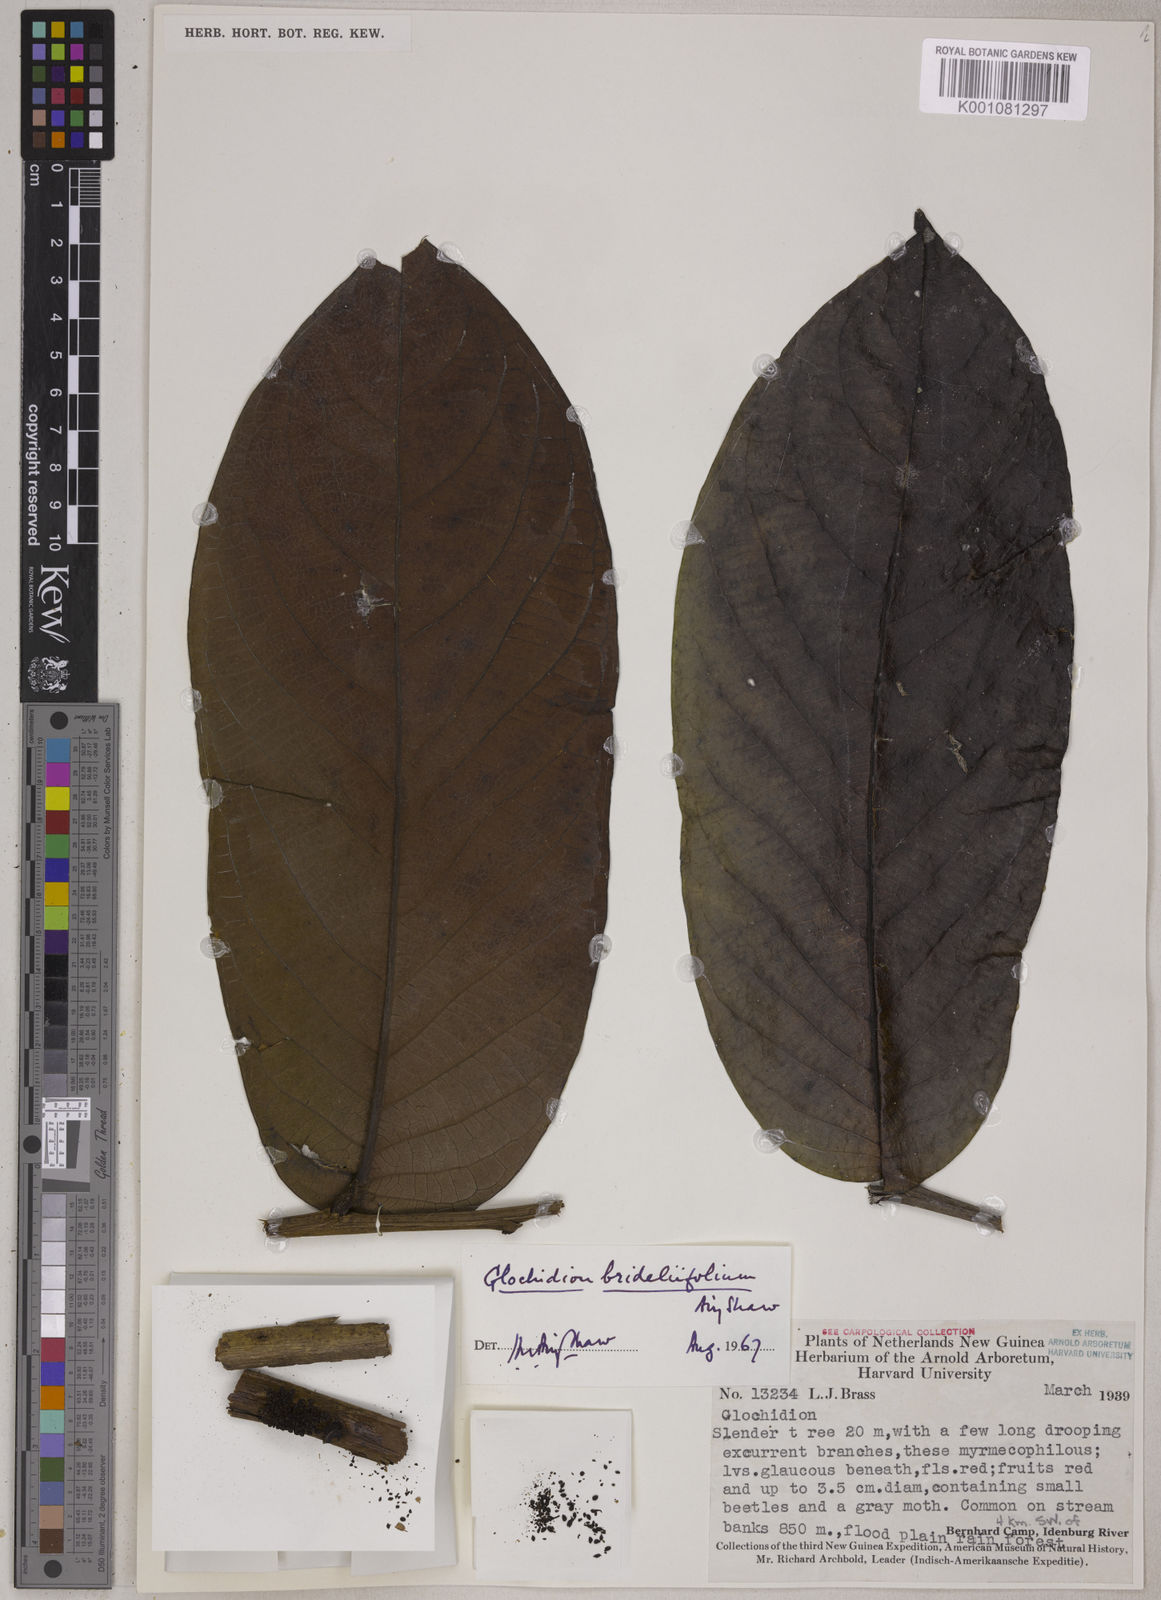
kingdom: Plantae
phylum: Tracheophyta
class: Magnoliopsida
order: Malpighiales
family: Phyllanthaceae
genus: Glochidion
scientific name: Glochidion brideliifolium
